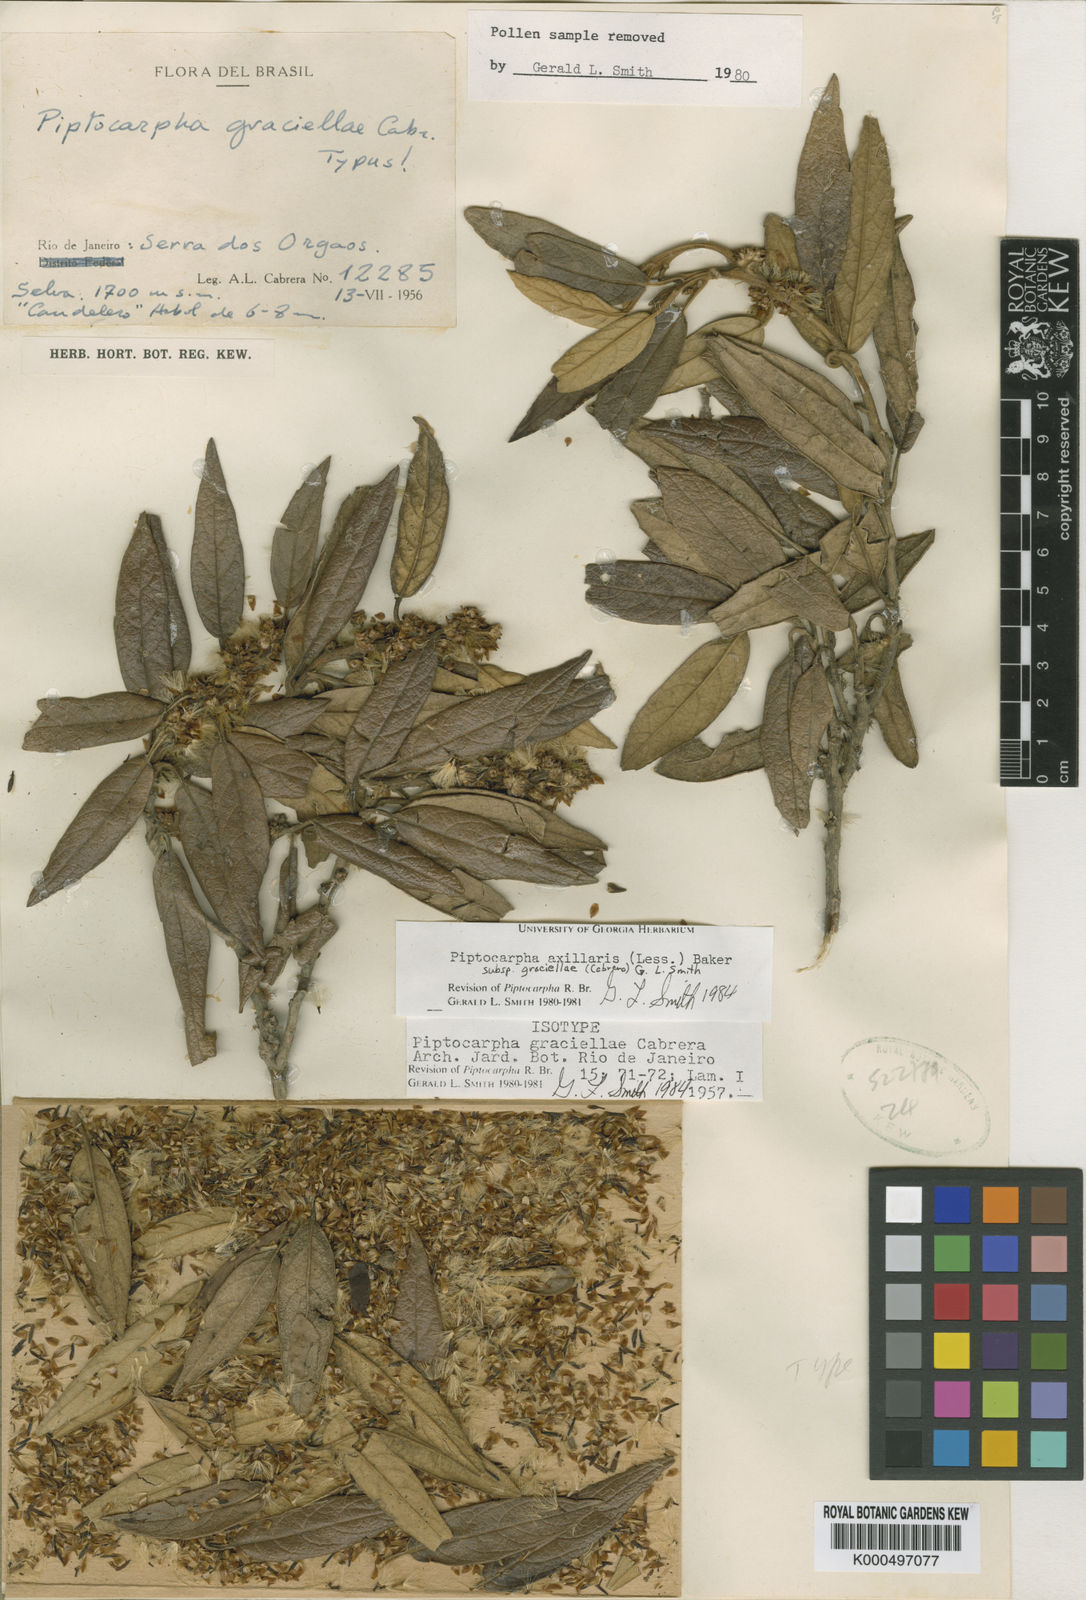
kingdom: Plantae
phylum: Tracheophyta
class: Magnoliopsida
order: Asterales
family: Asteraceae
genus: Piptocarpha
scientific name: Piptocarpha axillaris
